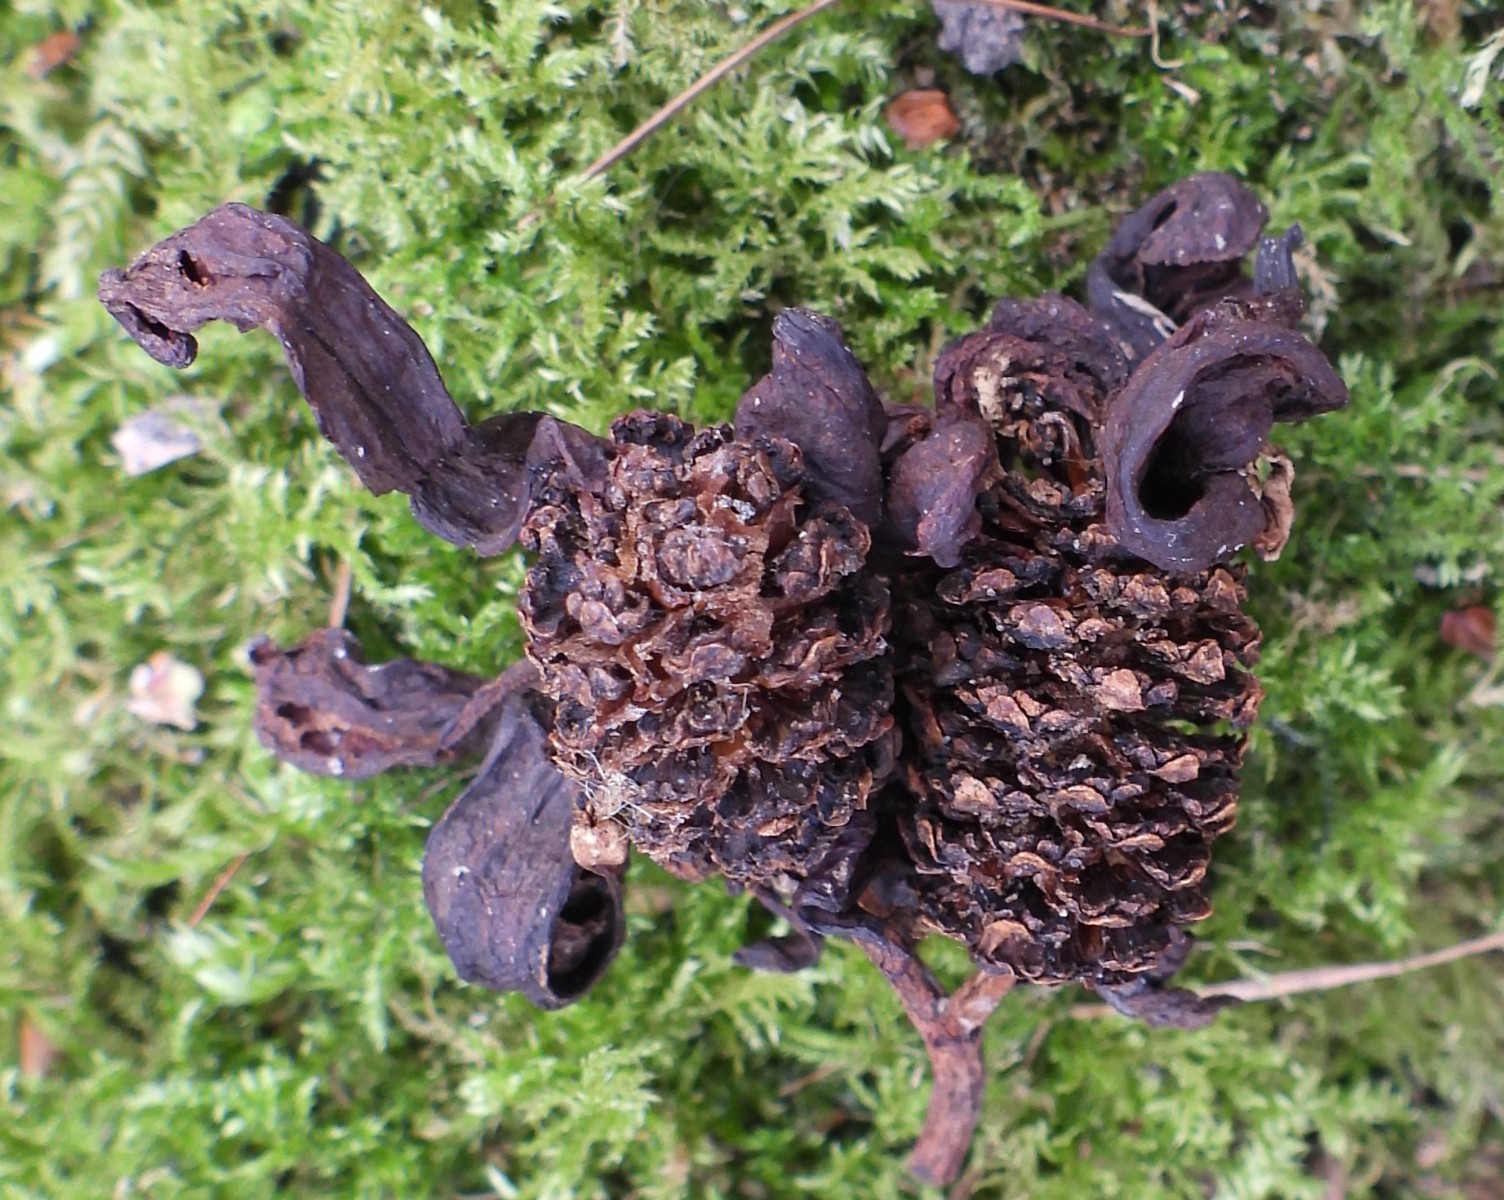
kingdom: Fungi
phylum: Ascomycota
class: Taphrinomycetes
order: Taphrinales
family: Taphrinaceae
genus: Taphrina
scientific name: Taphrina alni
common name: Alder tongue
